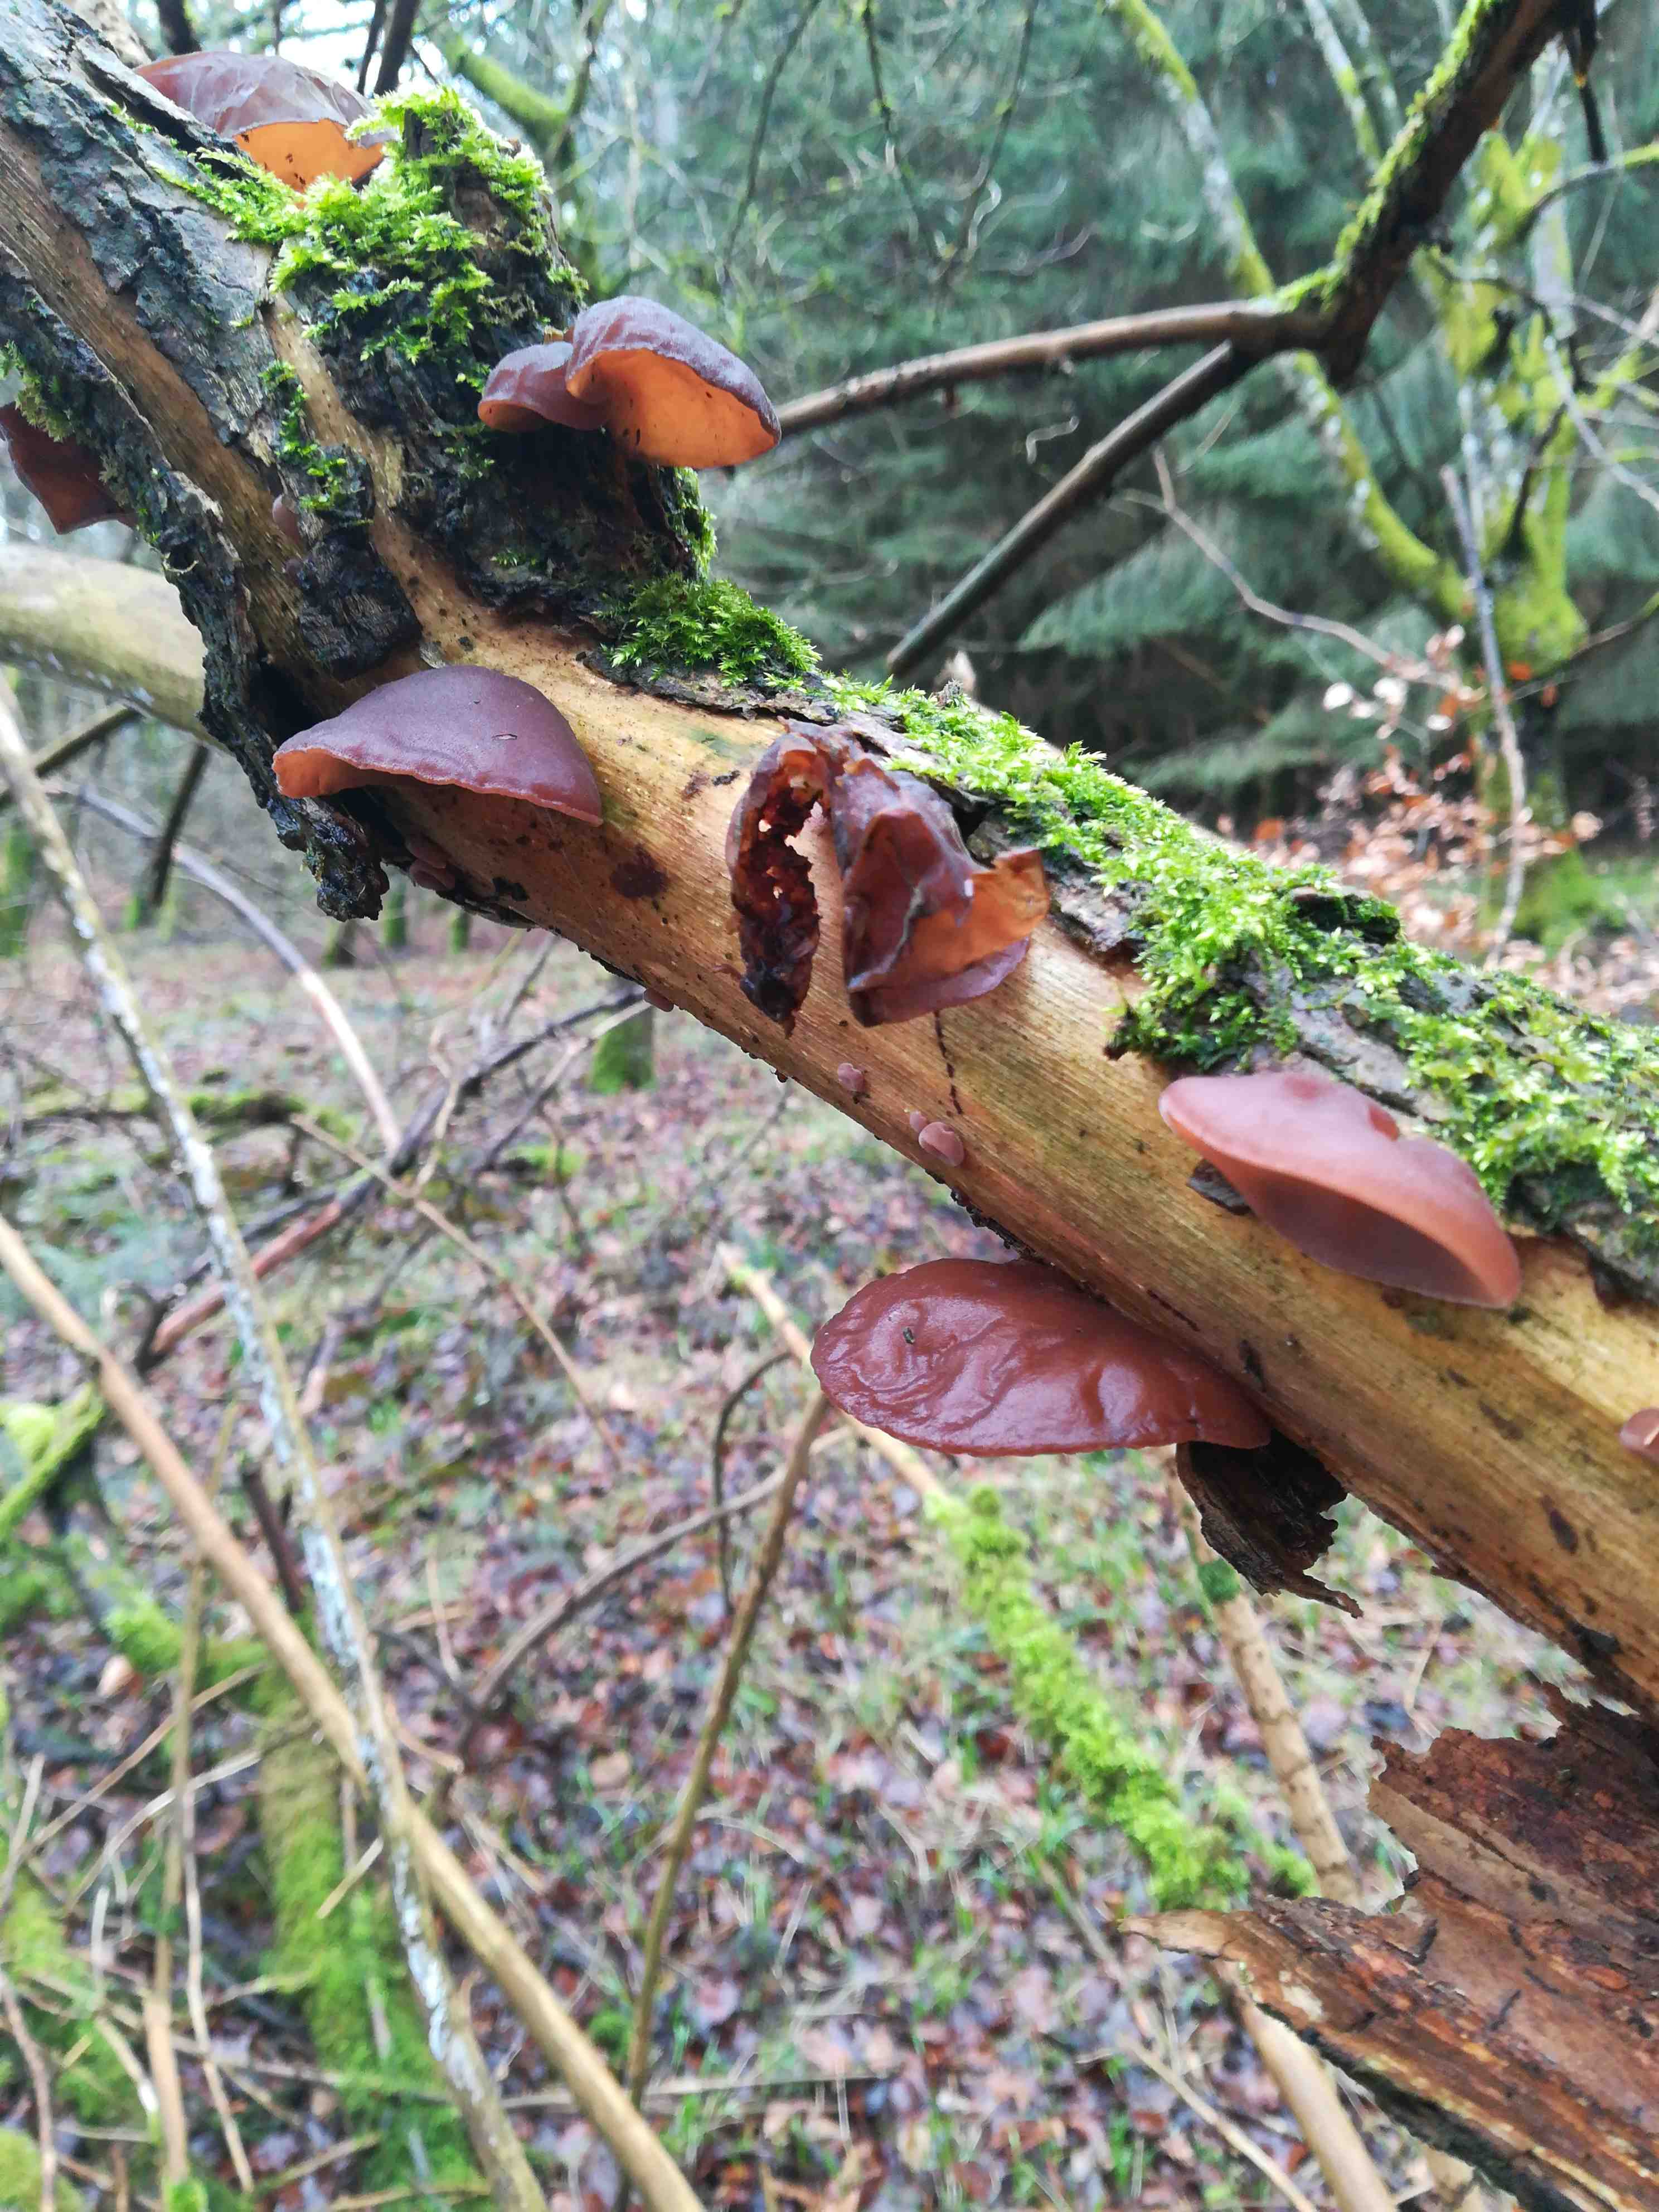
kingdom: Fungi
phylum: Basidiomycota
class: Agaricomycetes
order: Auriculariales
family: Auriculariaceae
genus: Auricularia
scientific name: Auricularia auricula-judae
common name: almindelig judasøre
